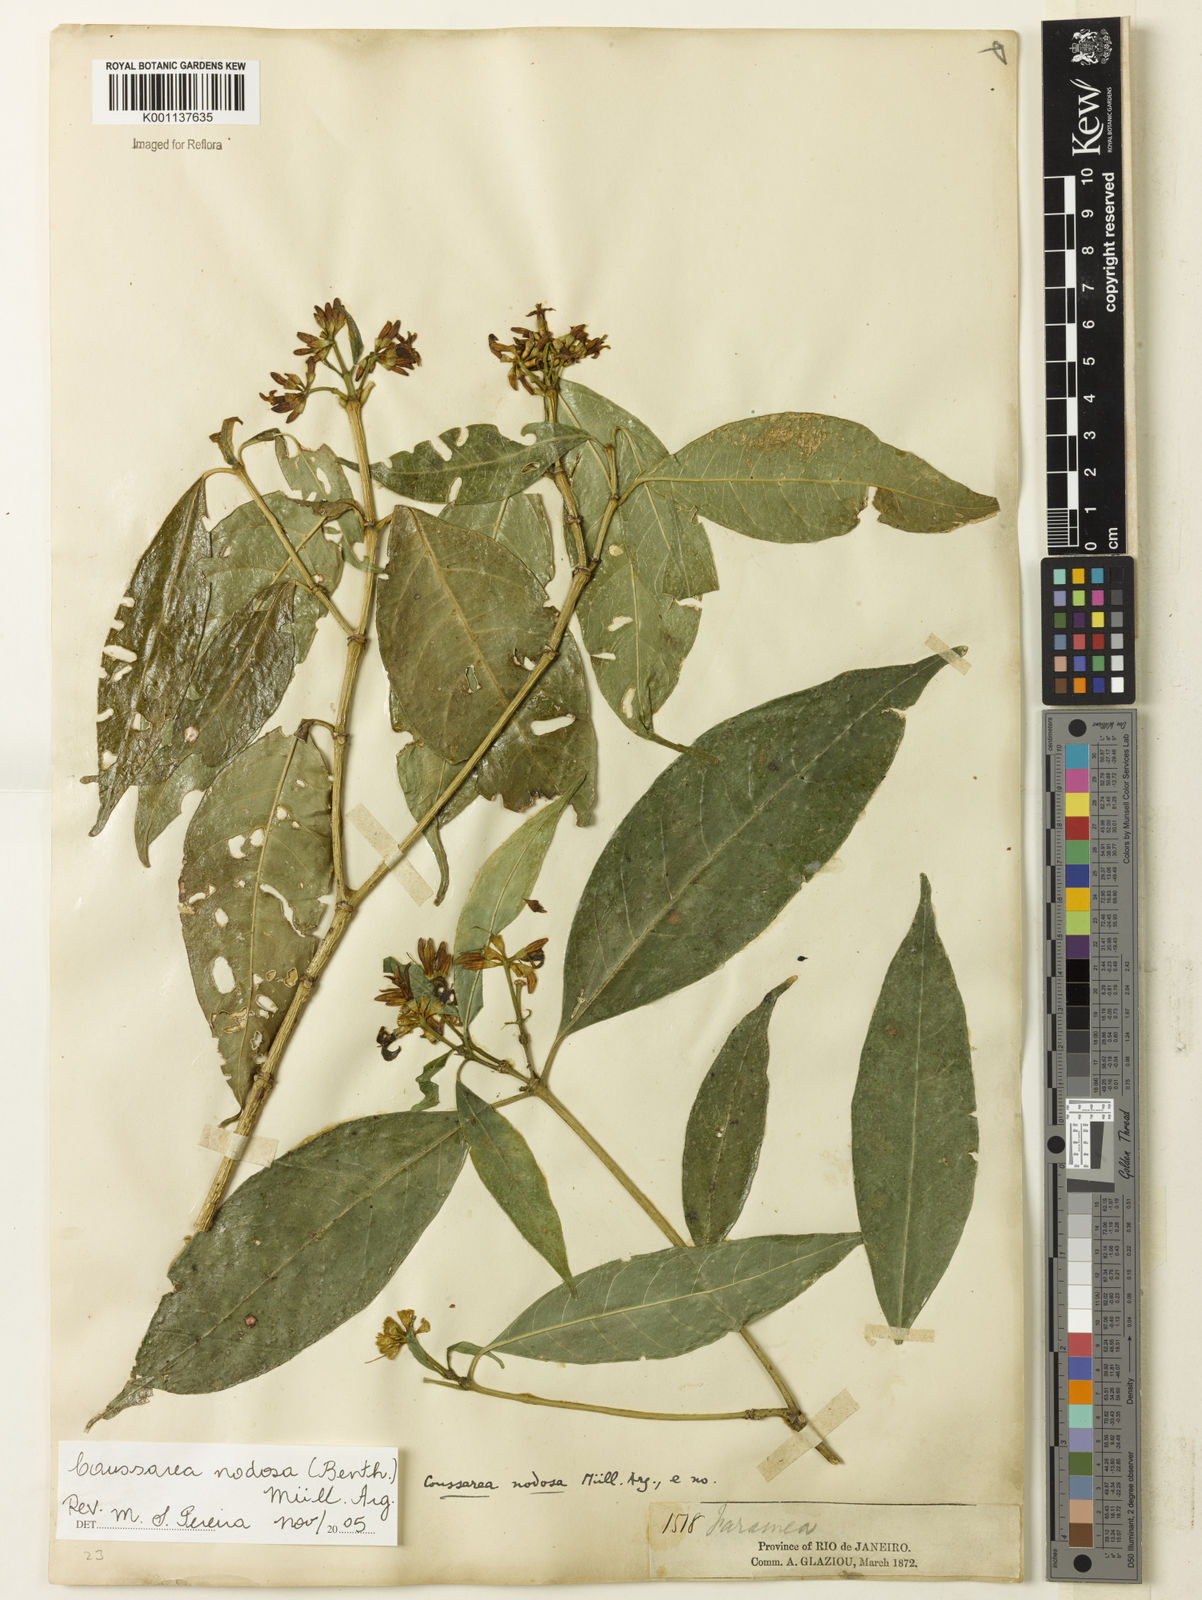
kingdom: Plantae
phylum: Tracheophyta
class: Magnoliopsida
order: Gentianales
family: Rubiaceae
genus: Coussarea
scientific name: Coussarea
